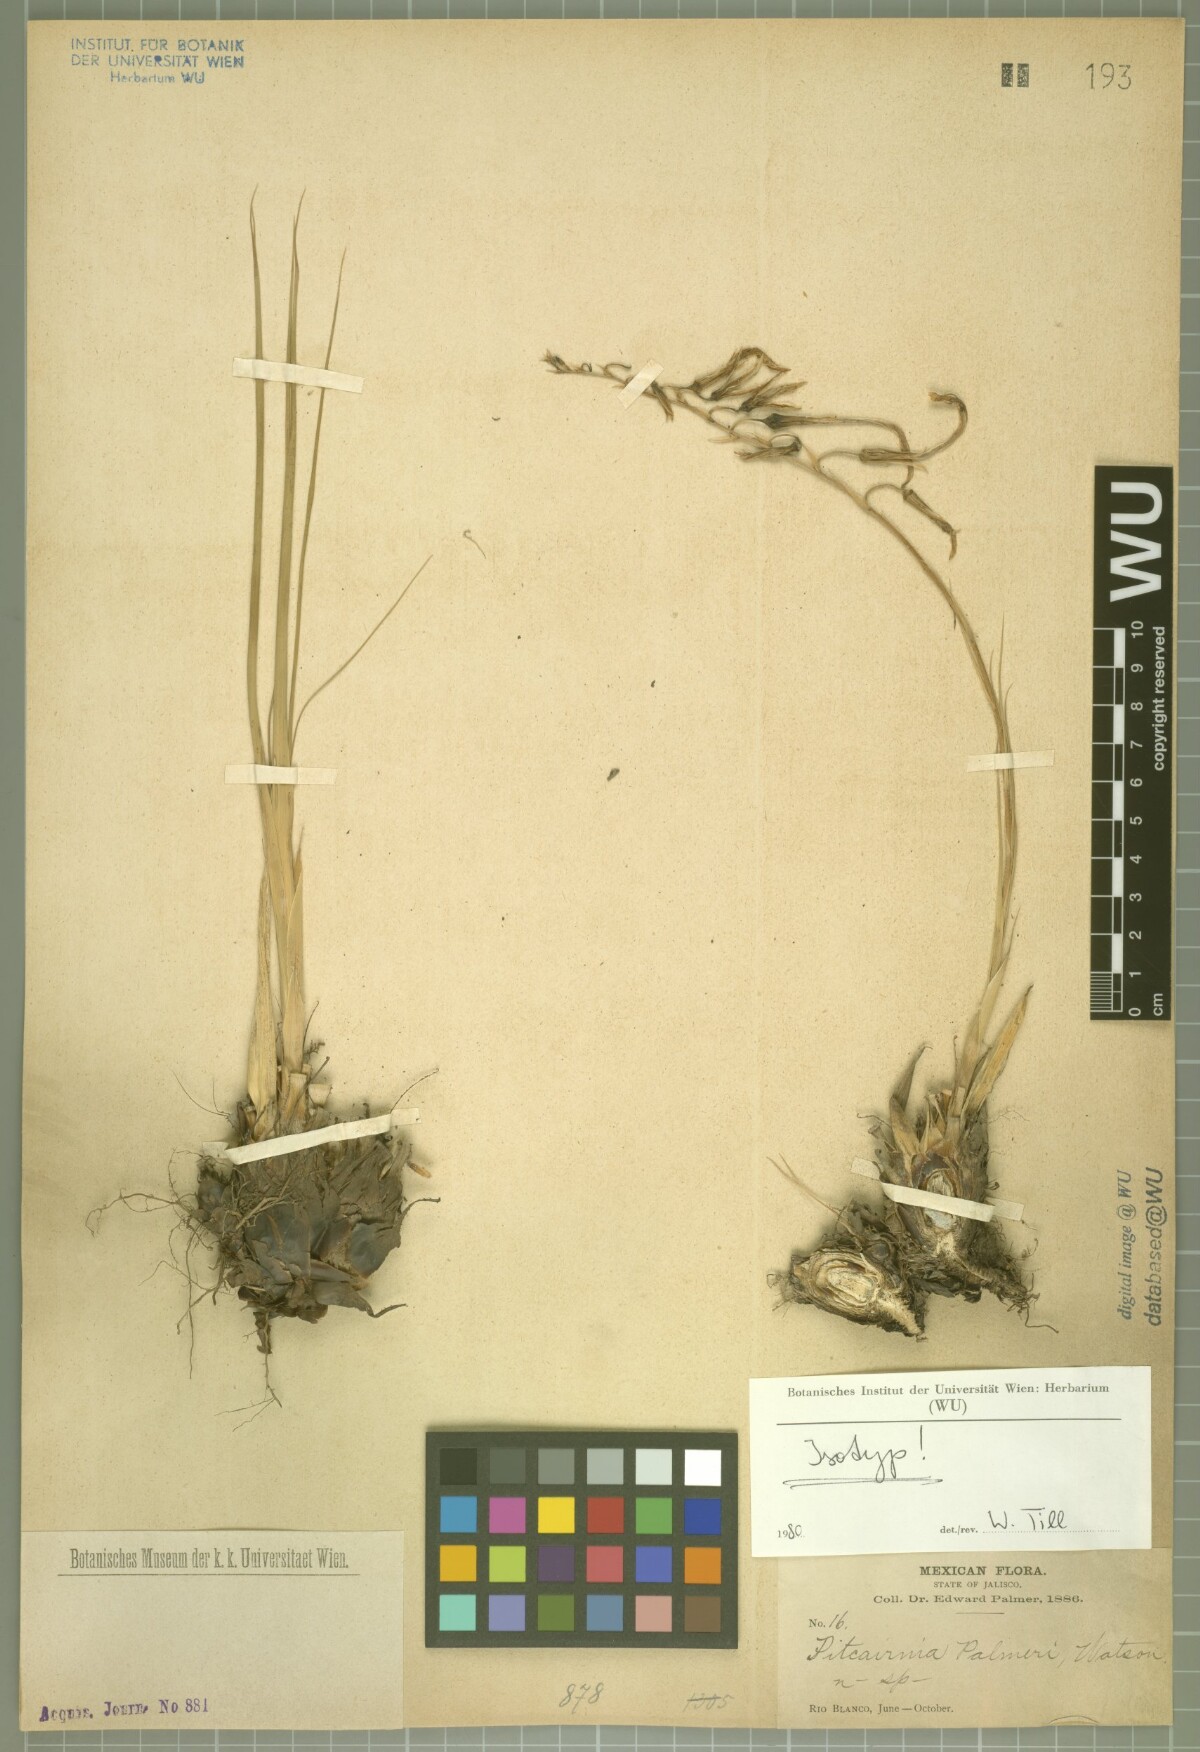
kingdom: Plantae
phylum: Tracheophyta
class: Liliopsida
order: Poales
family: Bromeliaceae
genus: Pitcairnia
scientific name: Pitcairnia palmeri
